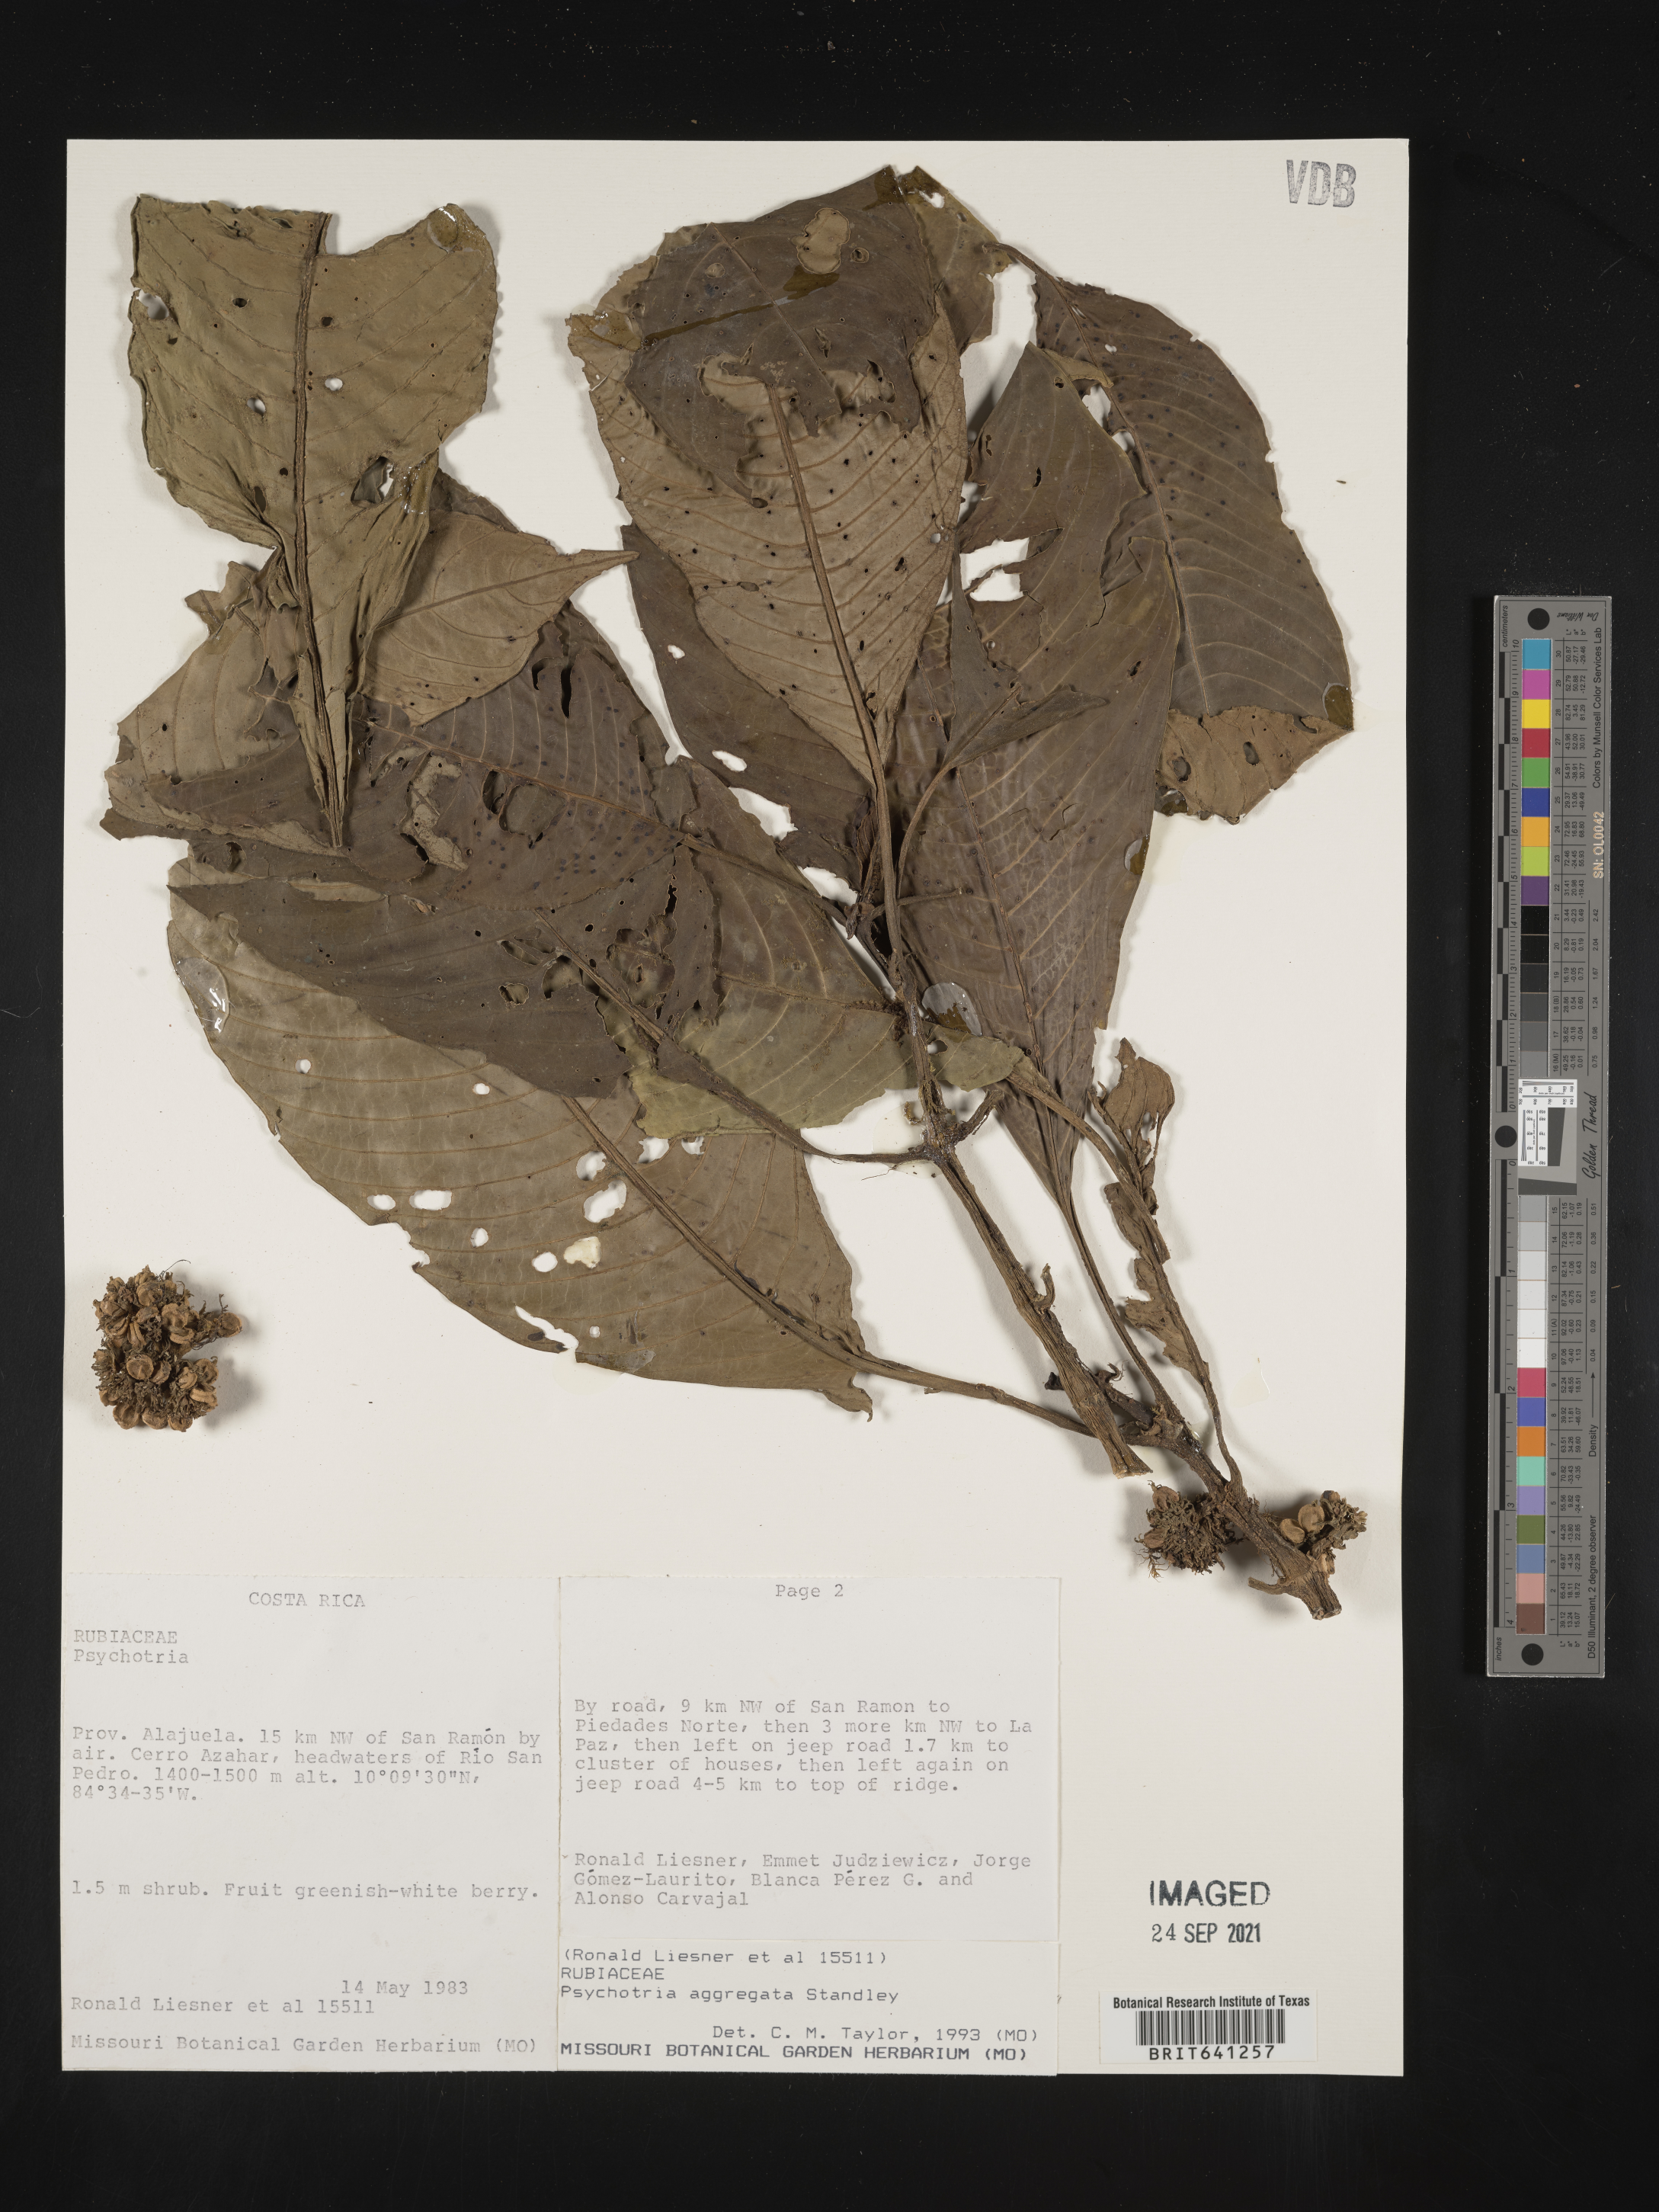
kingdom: Plantae
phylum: Tracheophyta
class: Magnoliopsida
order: Gentianales
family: Rubiaceae
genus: Psychotria
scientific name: Psychotria
